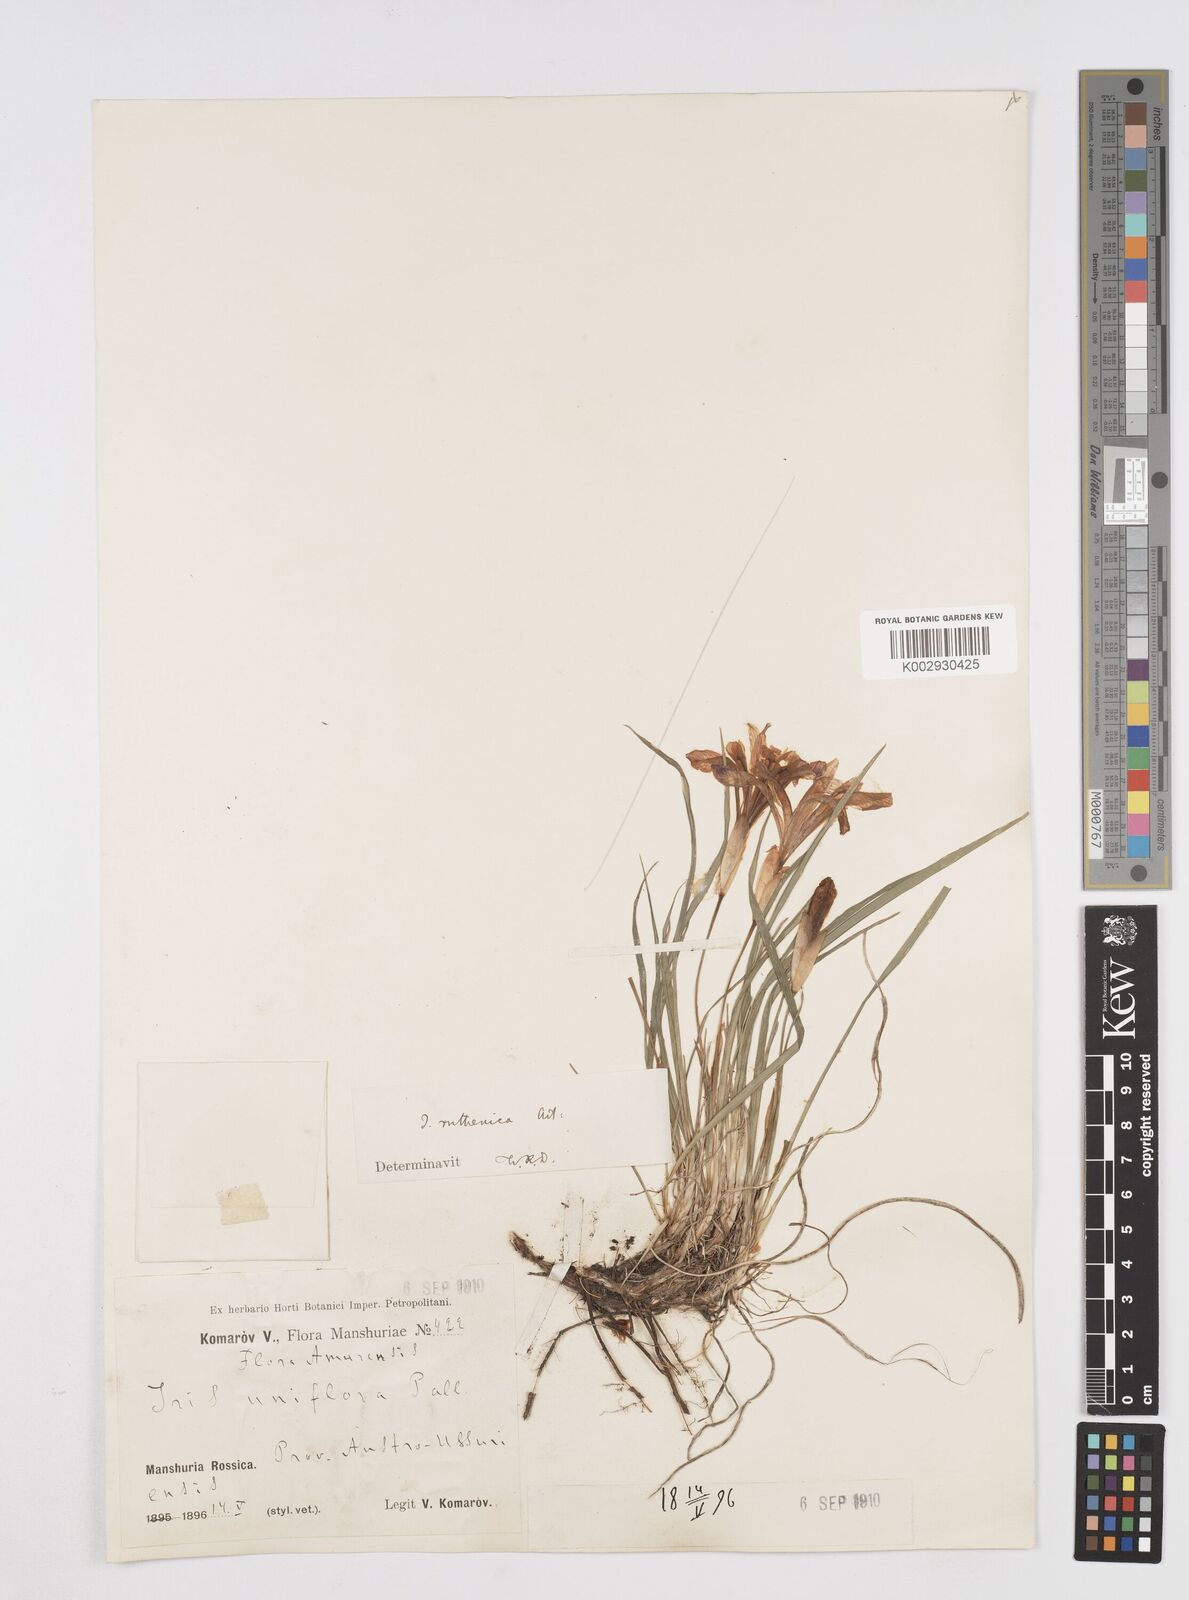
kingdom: Plantae
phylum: Tracheophyta
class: Liliopsida
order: Asparagales
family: Iridaceae
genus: Iris
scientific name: Iris uniflora
